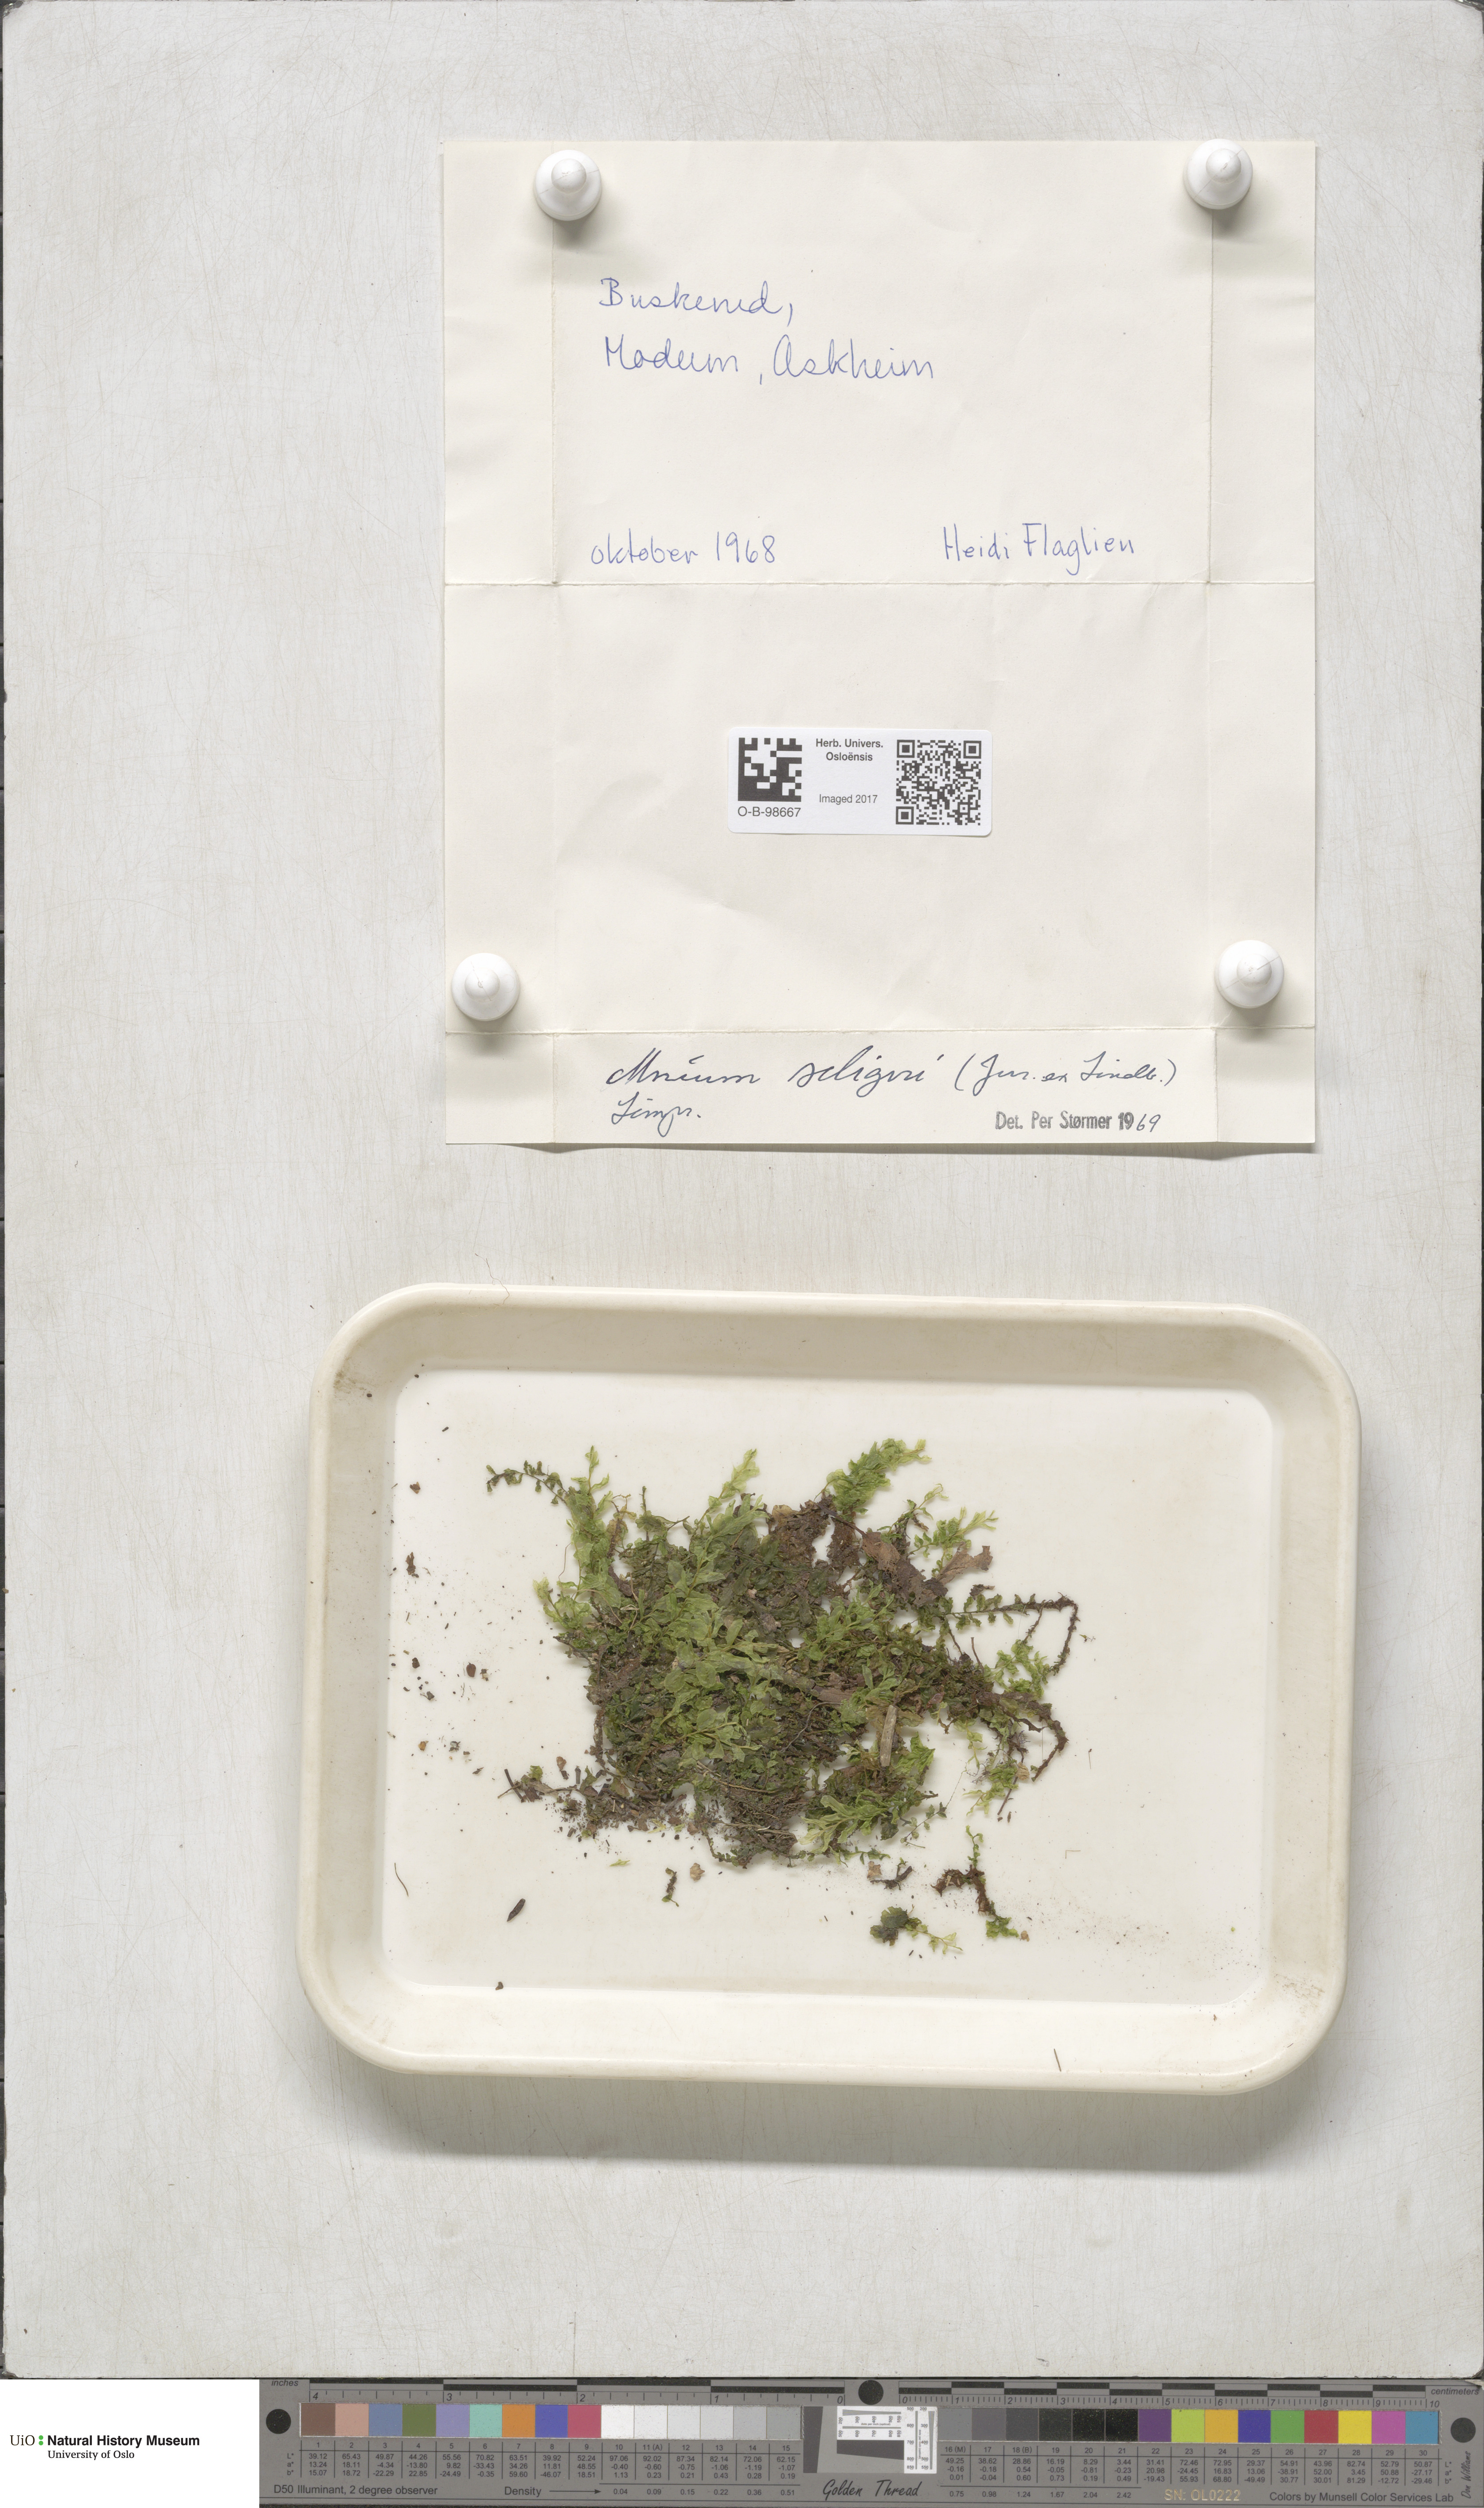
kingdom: Plantae
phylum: Bryophyta
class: Bryopsida
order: Bryales
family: Mniaceae
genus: Plagiomnium
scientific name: Plagiomnium elatum
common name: Tall thyme-moss
